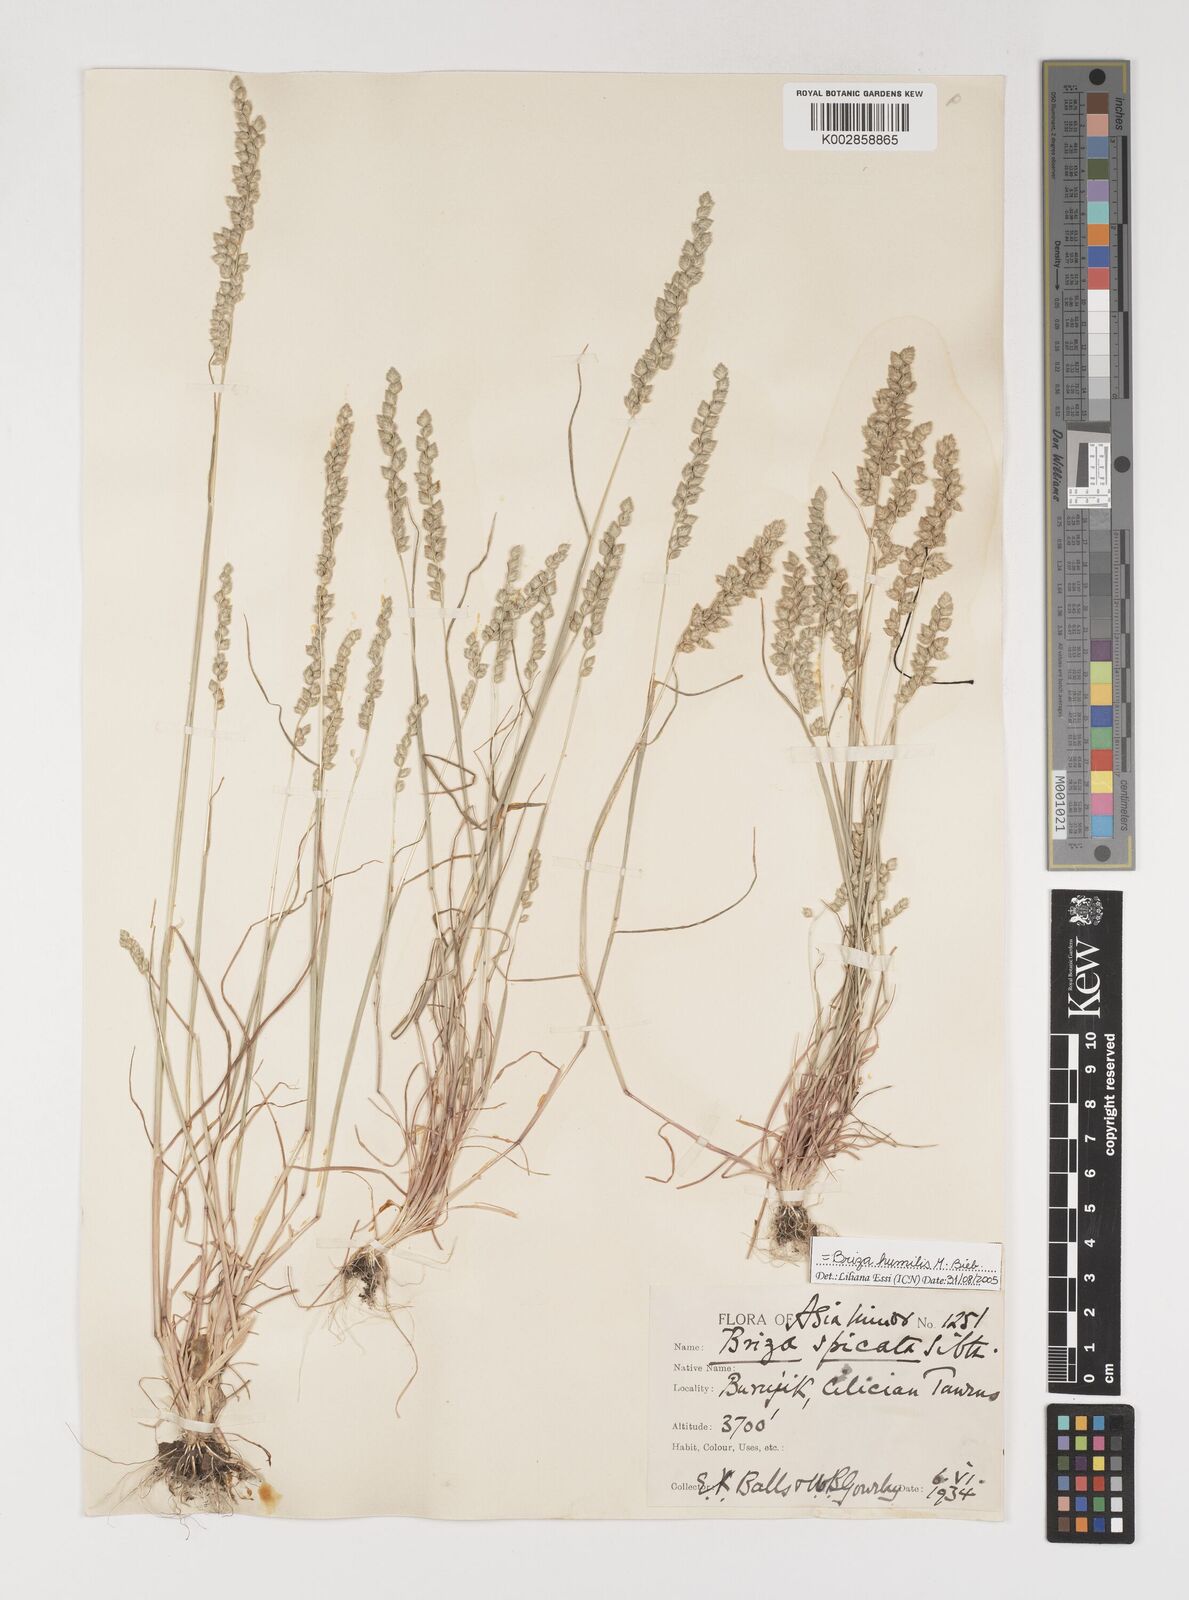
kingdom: Plantae
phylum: Tracheophyta
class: Liliopsida
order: Poales
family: Poaceae
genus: Briza
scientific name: Briza humilis
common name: Spiked quaking grass
